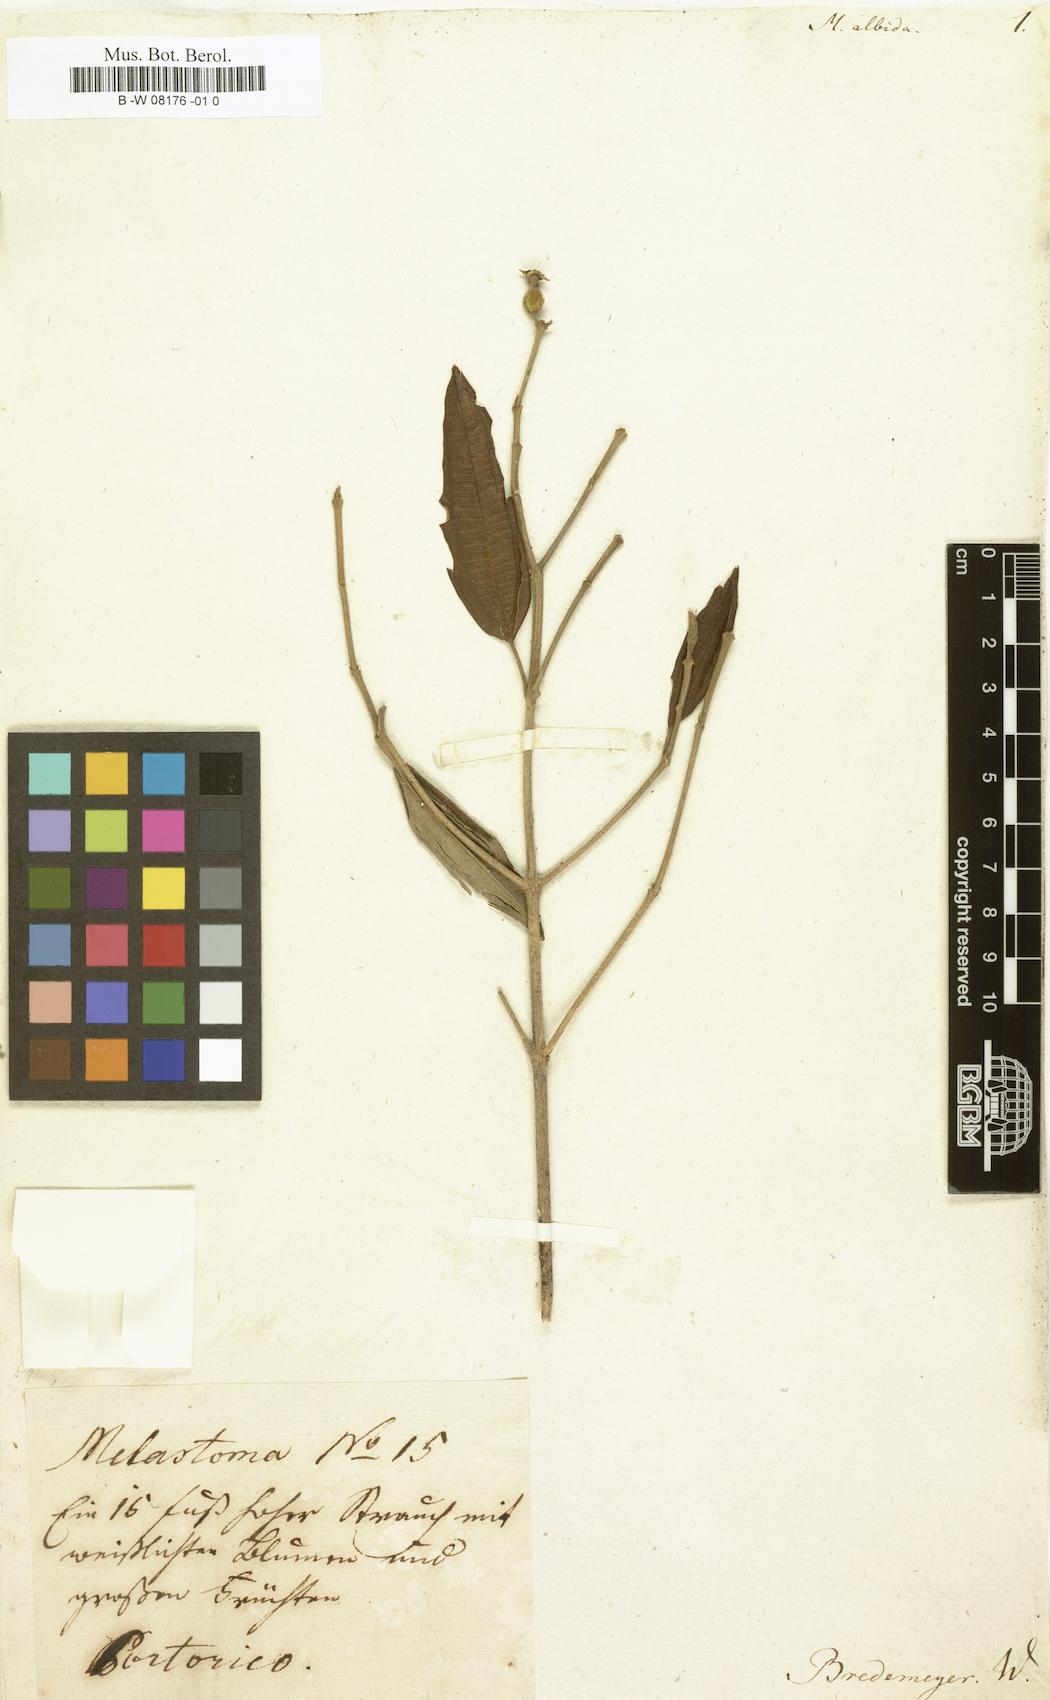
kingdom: Plantae
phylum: Tracheophyta
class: Magnoliopsida
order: Myrtales
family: Melastomataceae
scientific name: Melastomataceae
